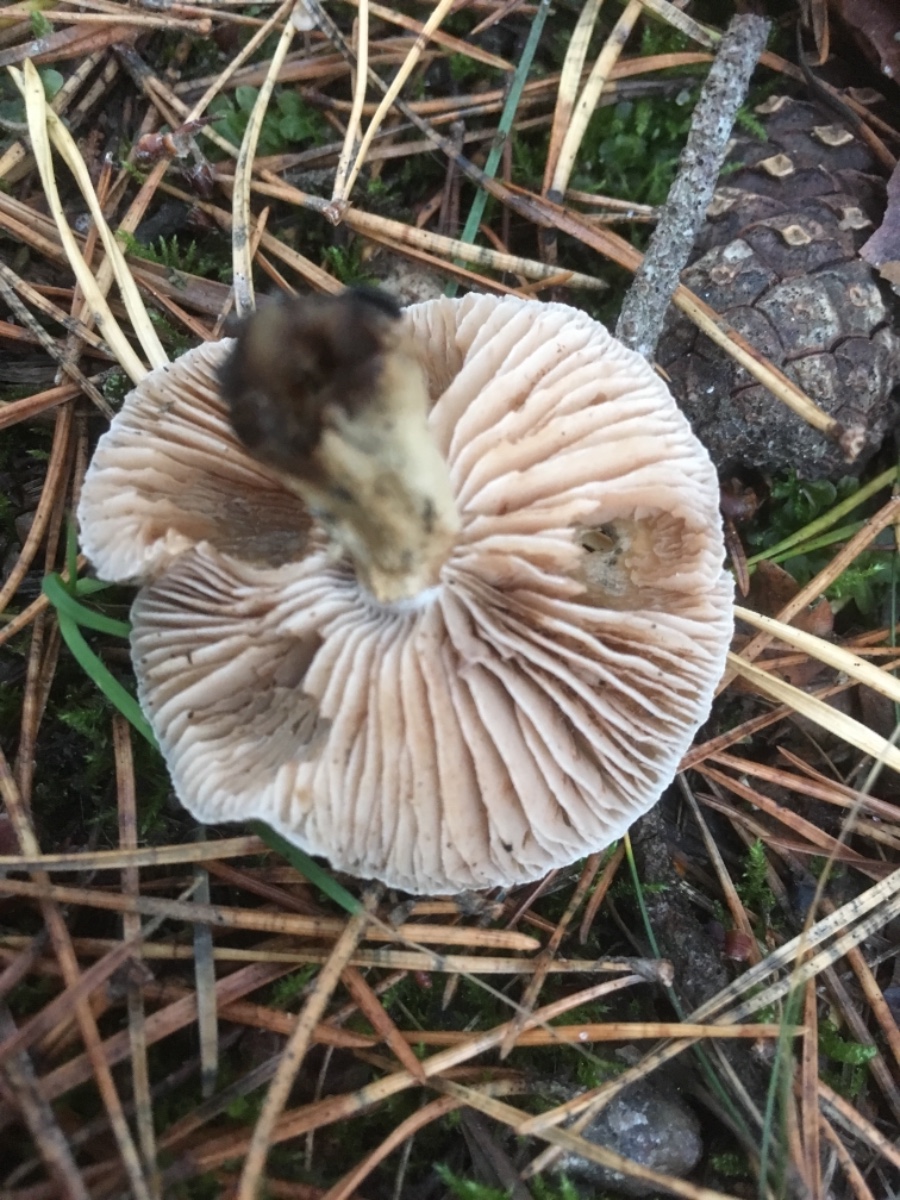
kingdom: Fungi
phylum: Basidiomycota
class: Agaricomycetes
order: Agaricales
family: Hymenogastraceae
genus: Hebeloma
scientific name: Hebeloma
